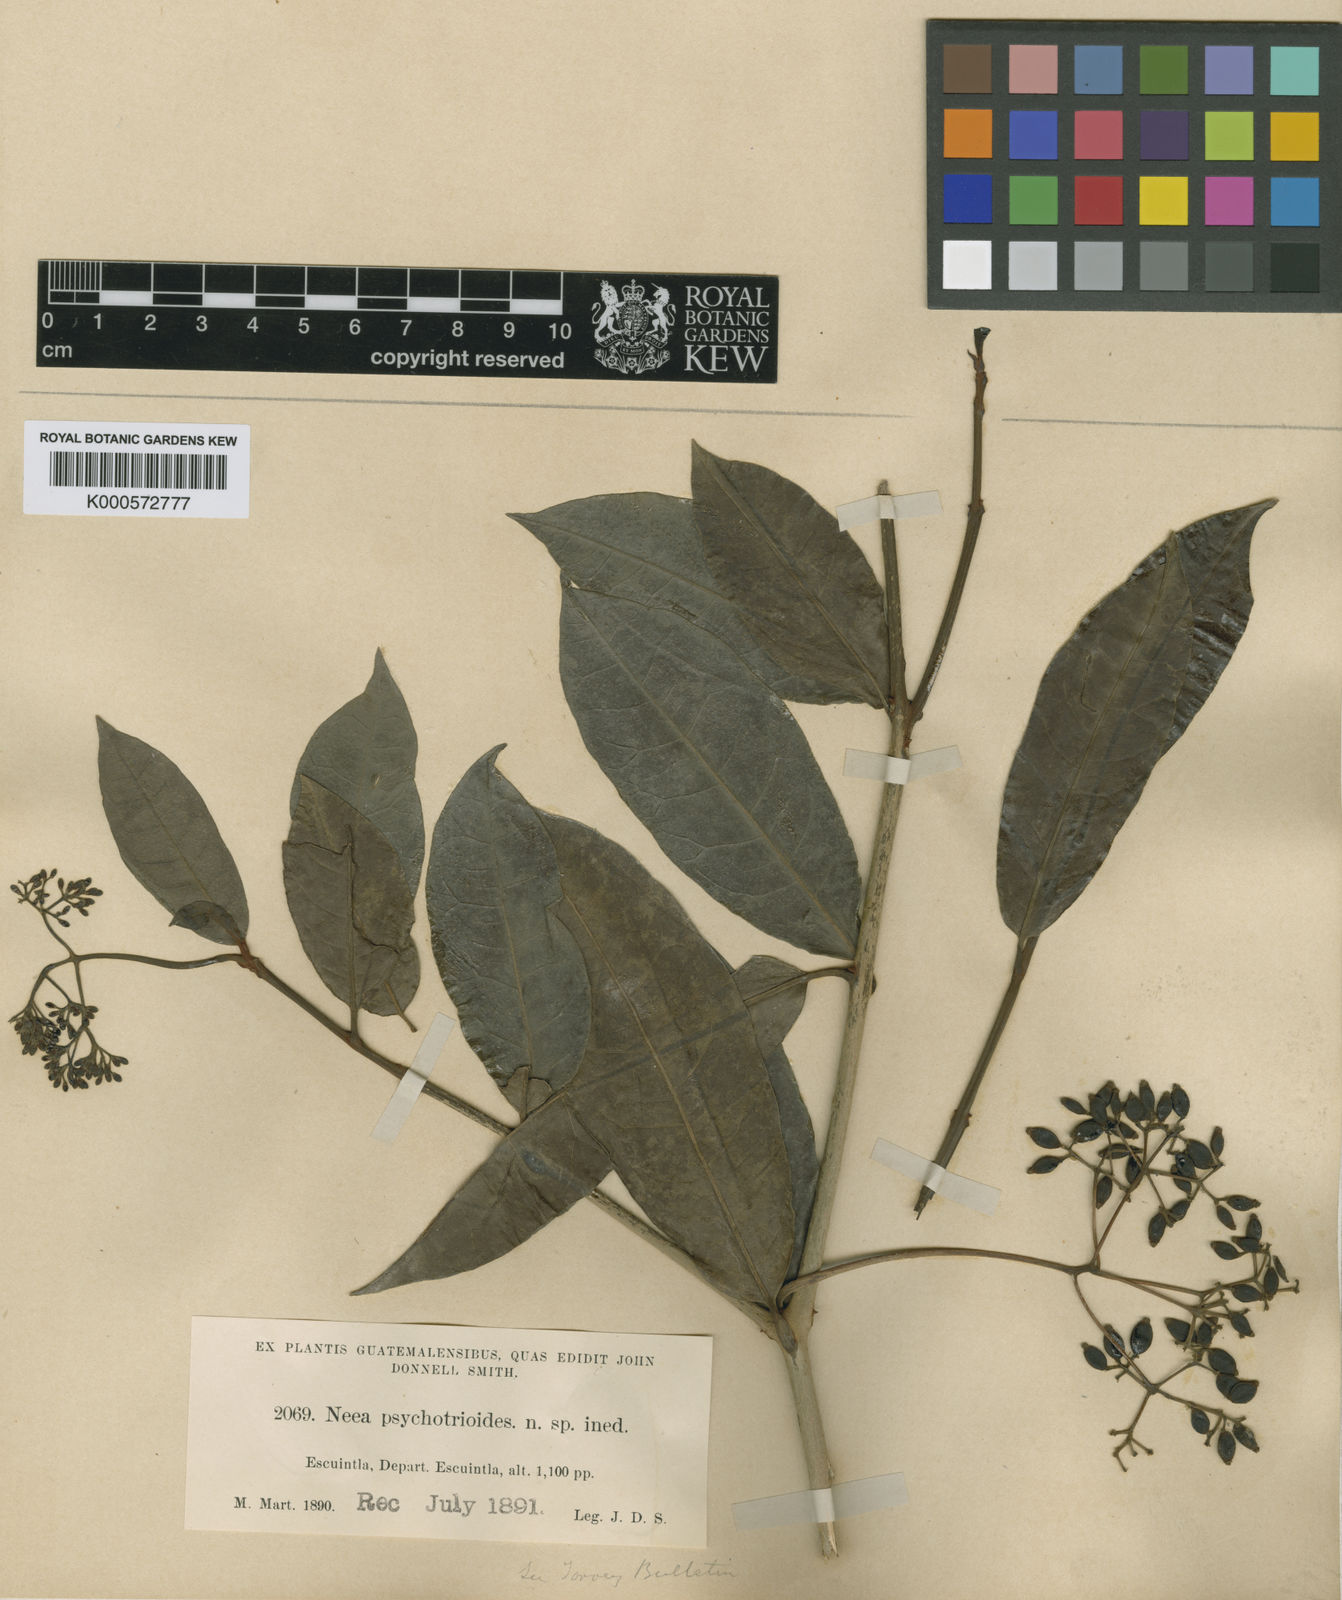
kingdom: Plantae
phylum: Tracheophyta
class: Magnoliopsida
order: Caryophyllales
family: Nyctaginaceae
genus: Neea
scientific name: Neea psychotrioides
